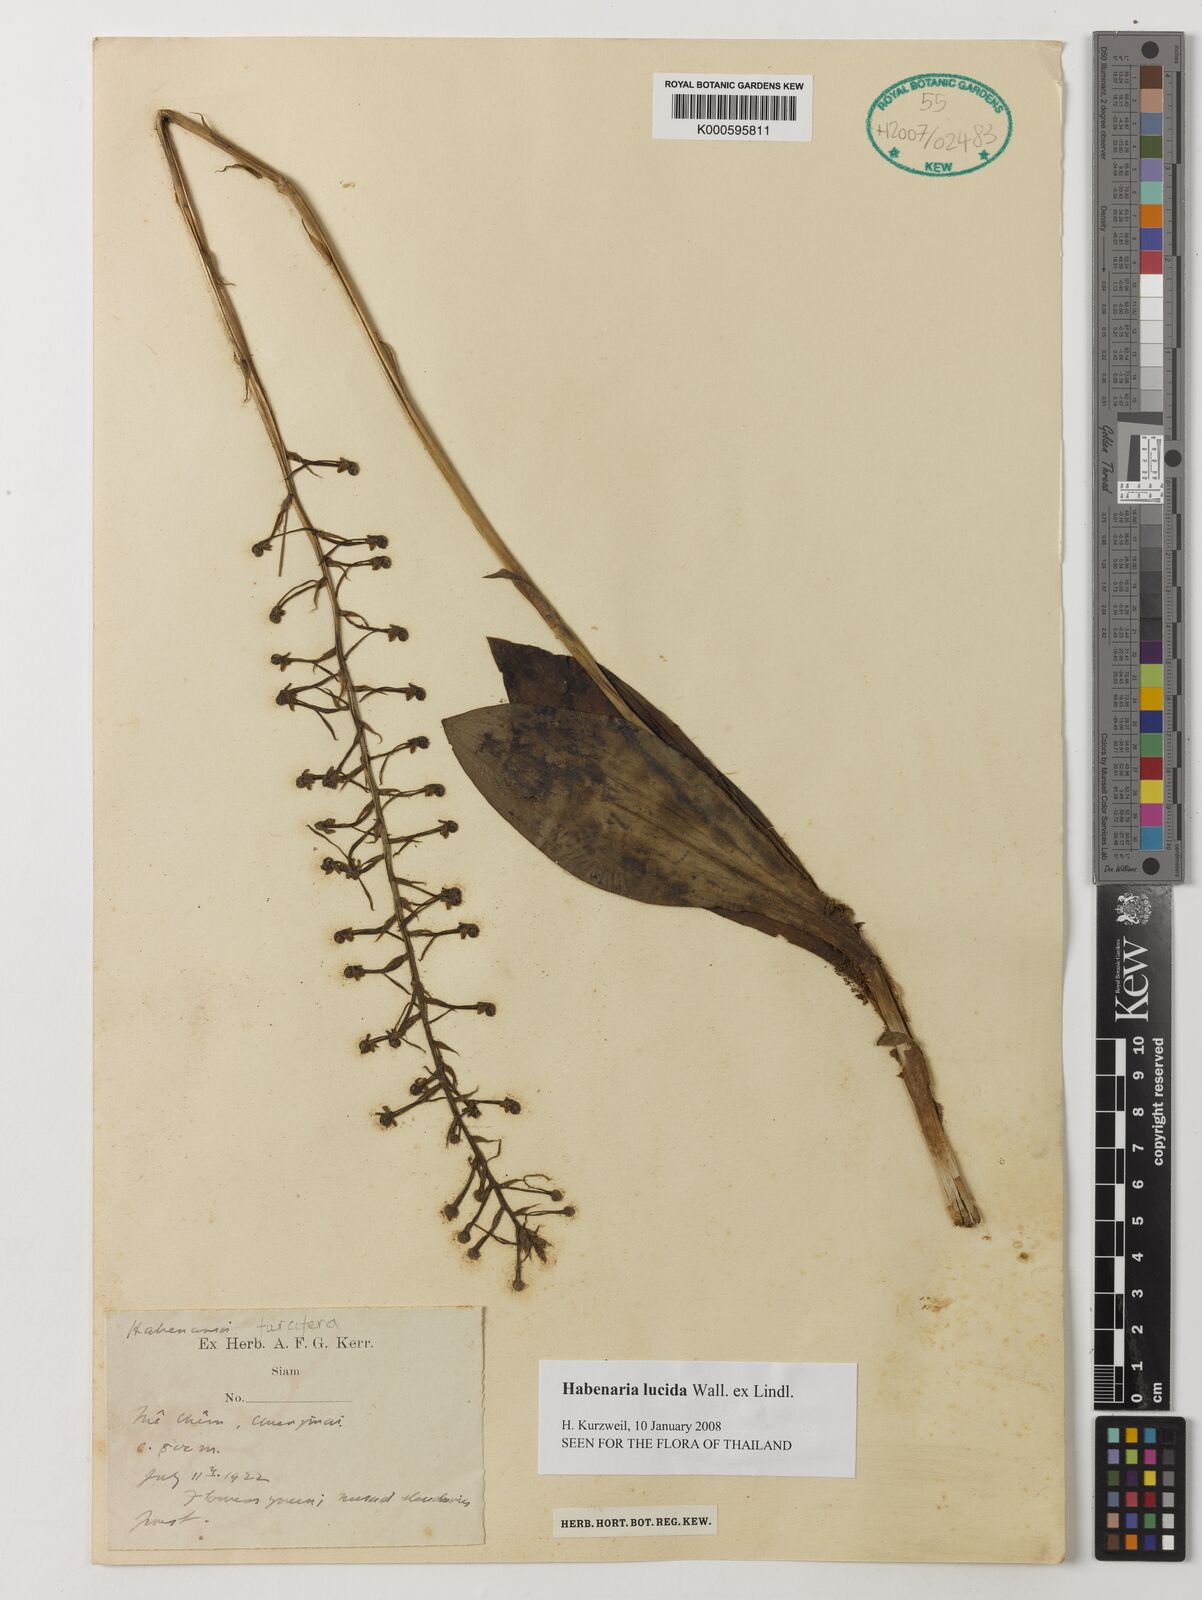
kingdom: Plantae
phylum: Tracheophyta
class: Liliopsida
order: Asparagales
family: Orchidaceae
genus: Habenaria
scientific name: Habenaria lucida
